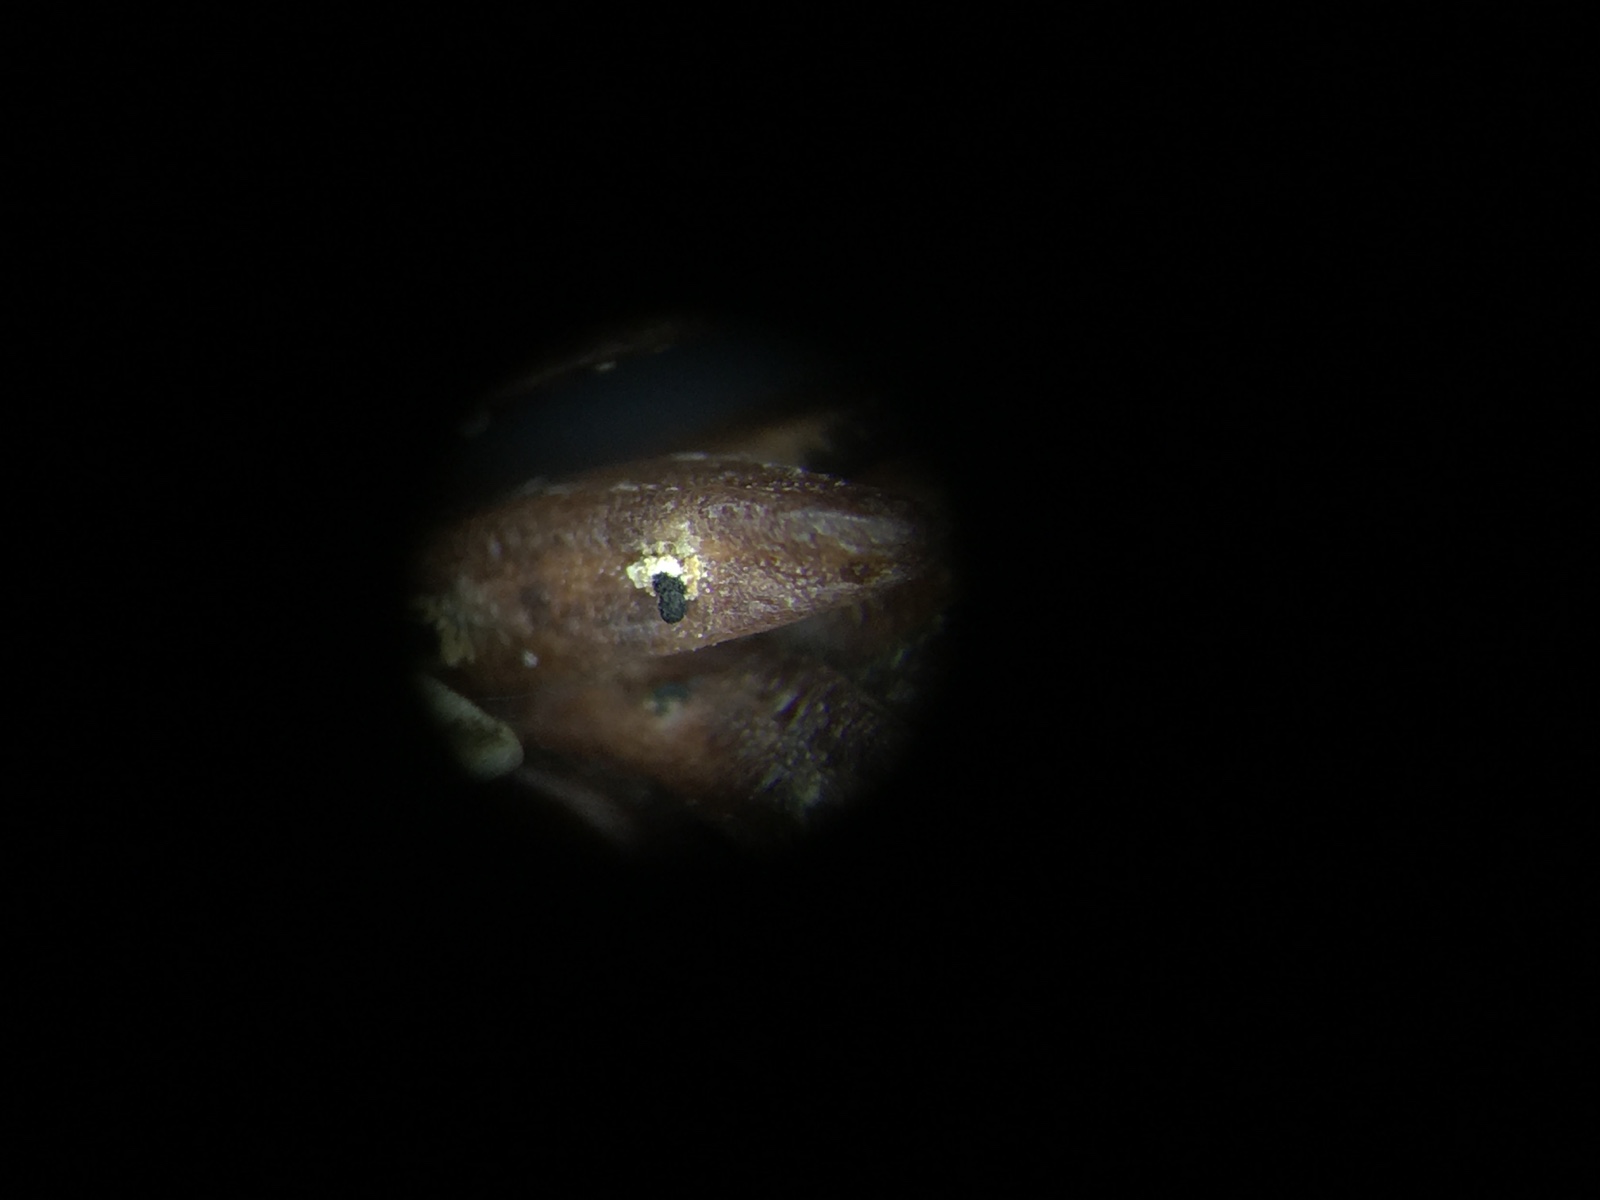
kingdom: Fungi
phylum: Ascomycota
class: Sordariomycetes
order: Amphisphaeriales
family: Pestalotiopsidaceae
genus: Pestalotiopsis
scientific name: Pestalotiopsis funerea
